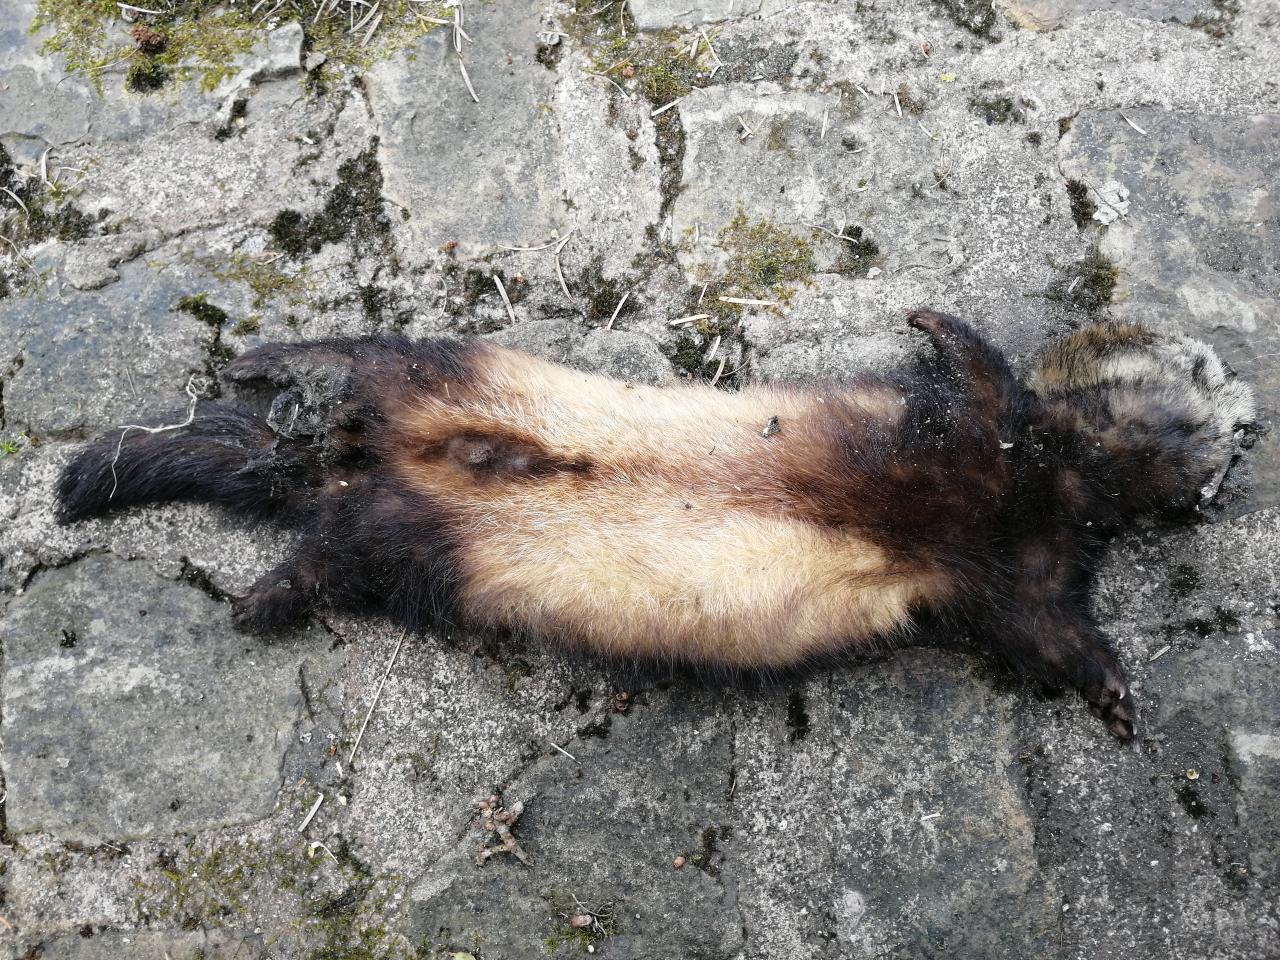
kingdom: Animalia
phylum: Chordata
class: Mammalia
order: Carnivora
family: Mustelidae
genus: Mustela
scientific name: Mustela putorius
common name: European polecat
